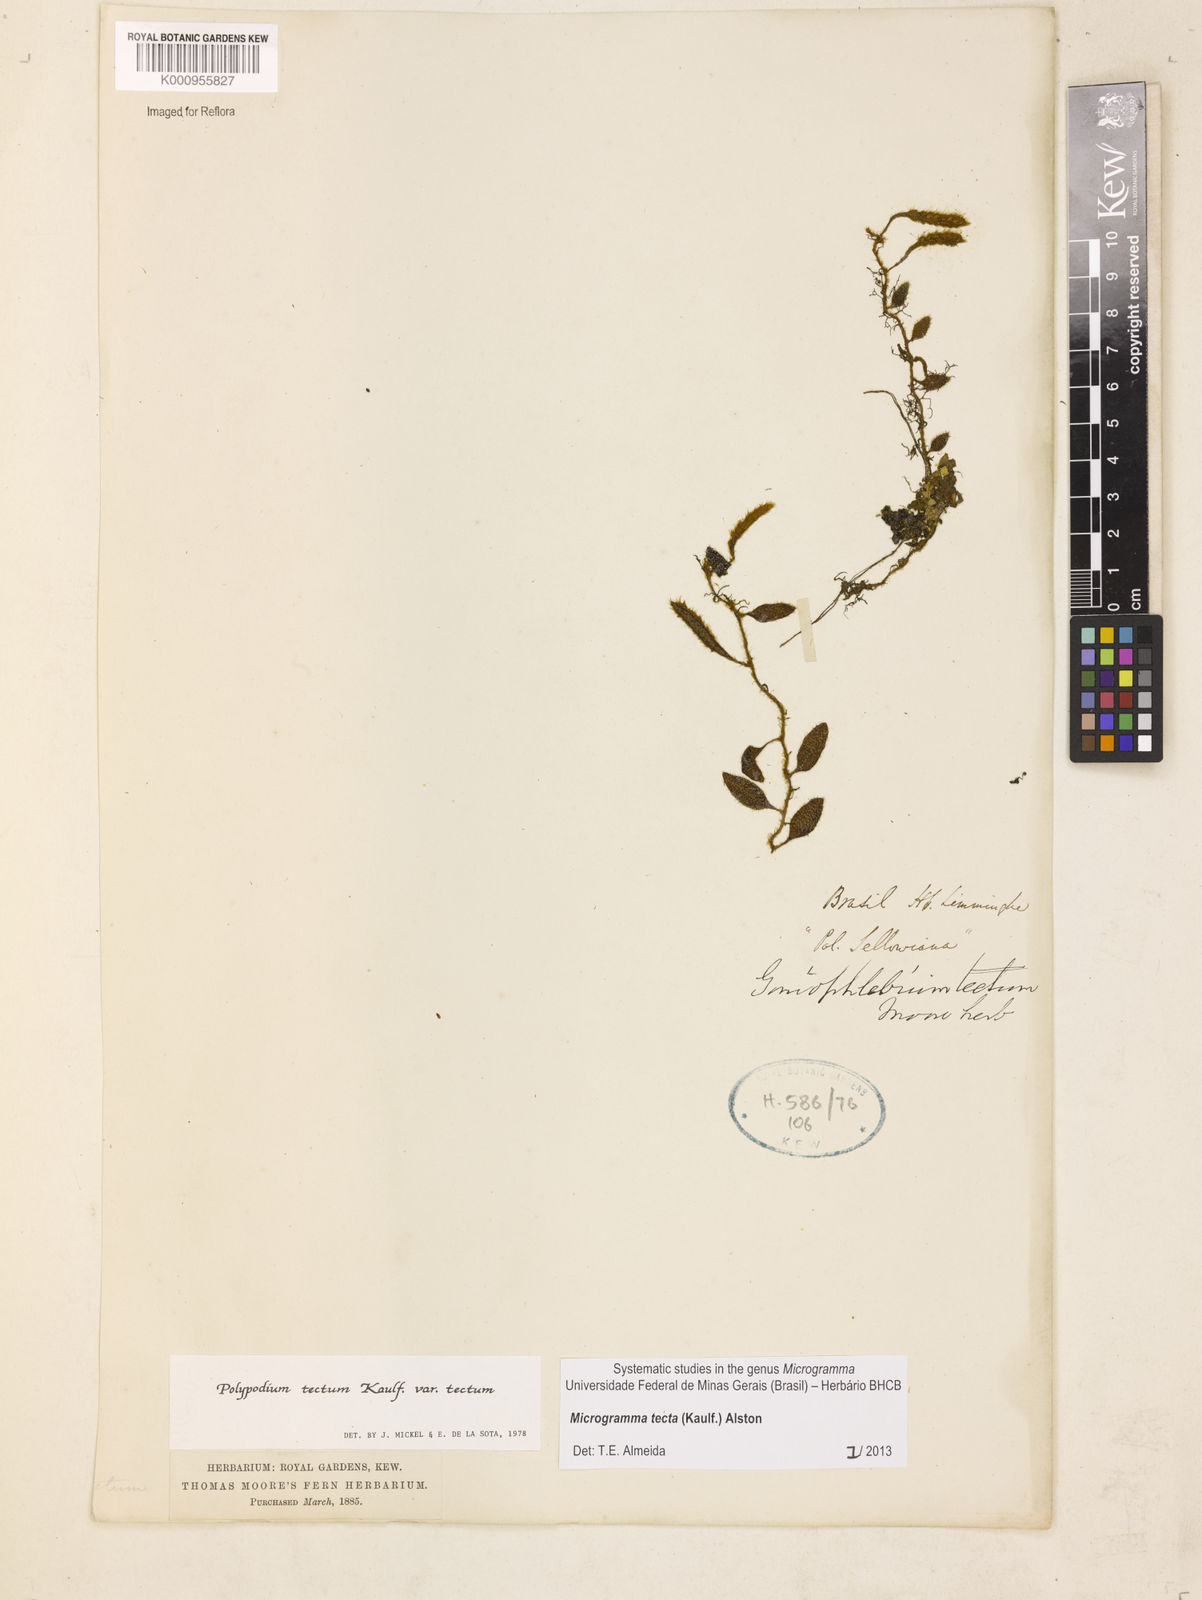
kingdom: Plantae
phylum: Tracheophyta
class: Polypodiopsida
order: Polypodiales
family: Polypodiaceae
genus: Microgramma
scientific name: Microgramma tecta
